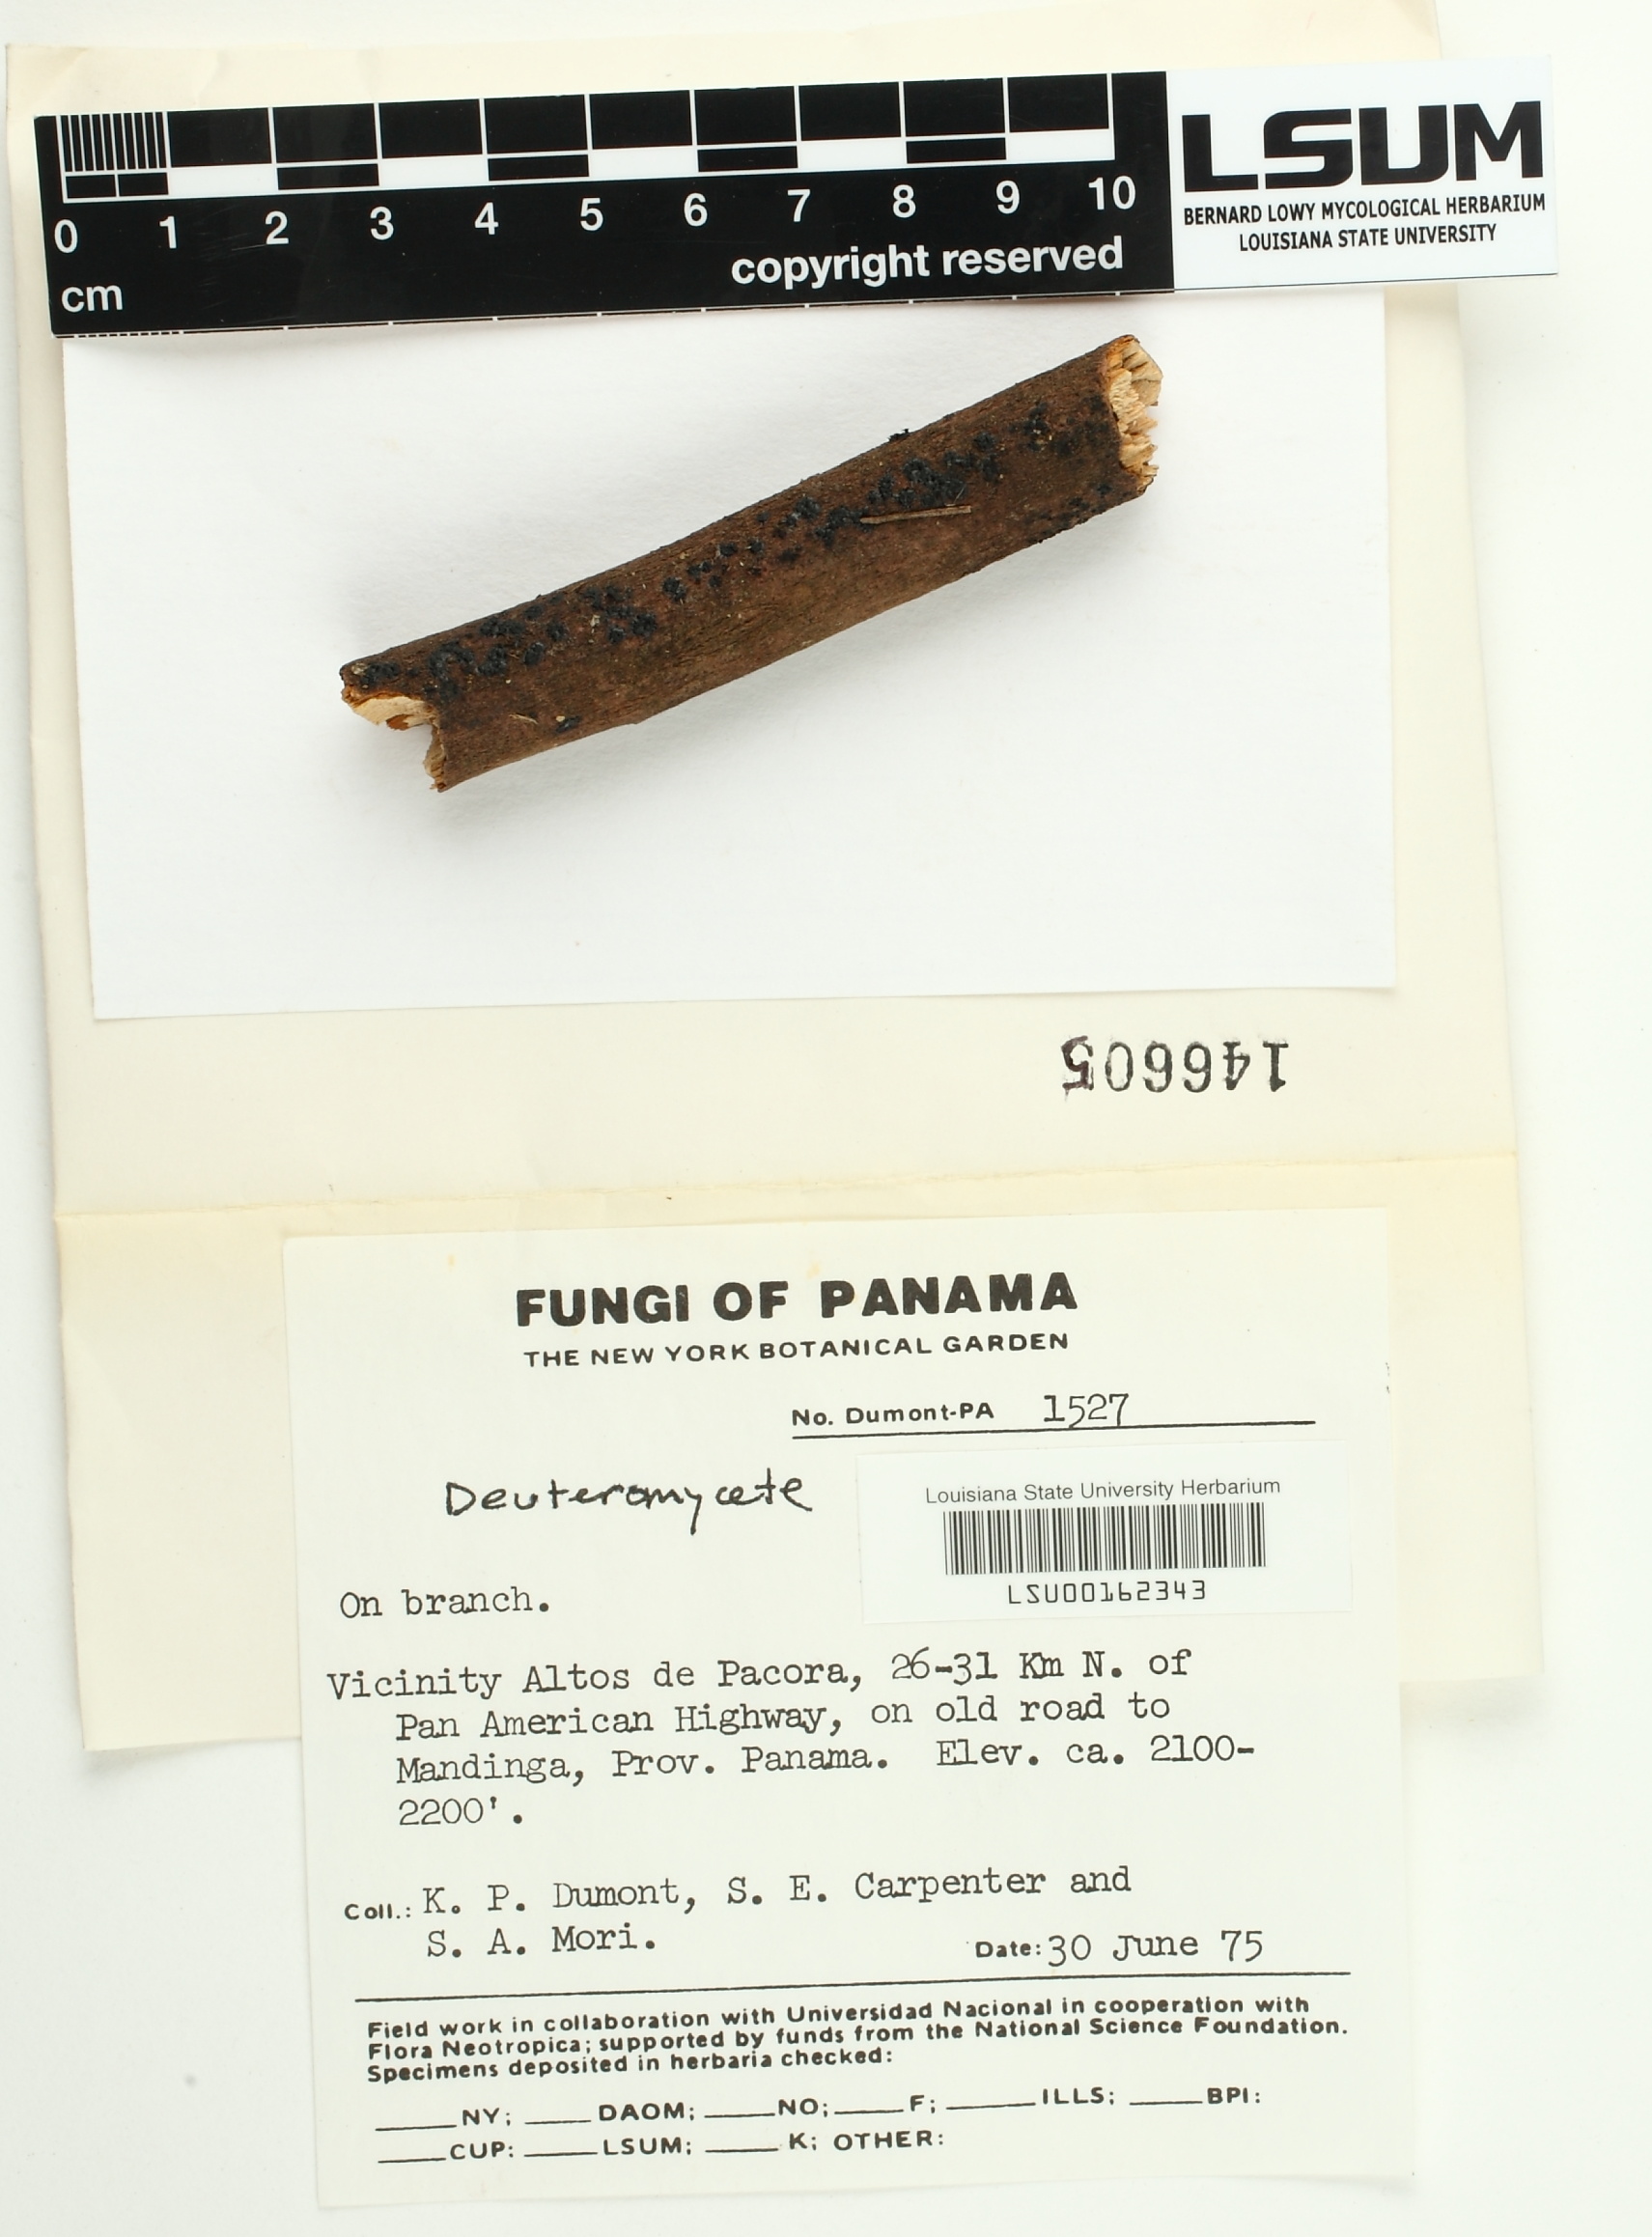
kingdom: Fungi
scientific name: Fungi
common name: Fungi
